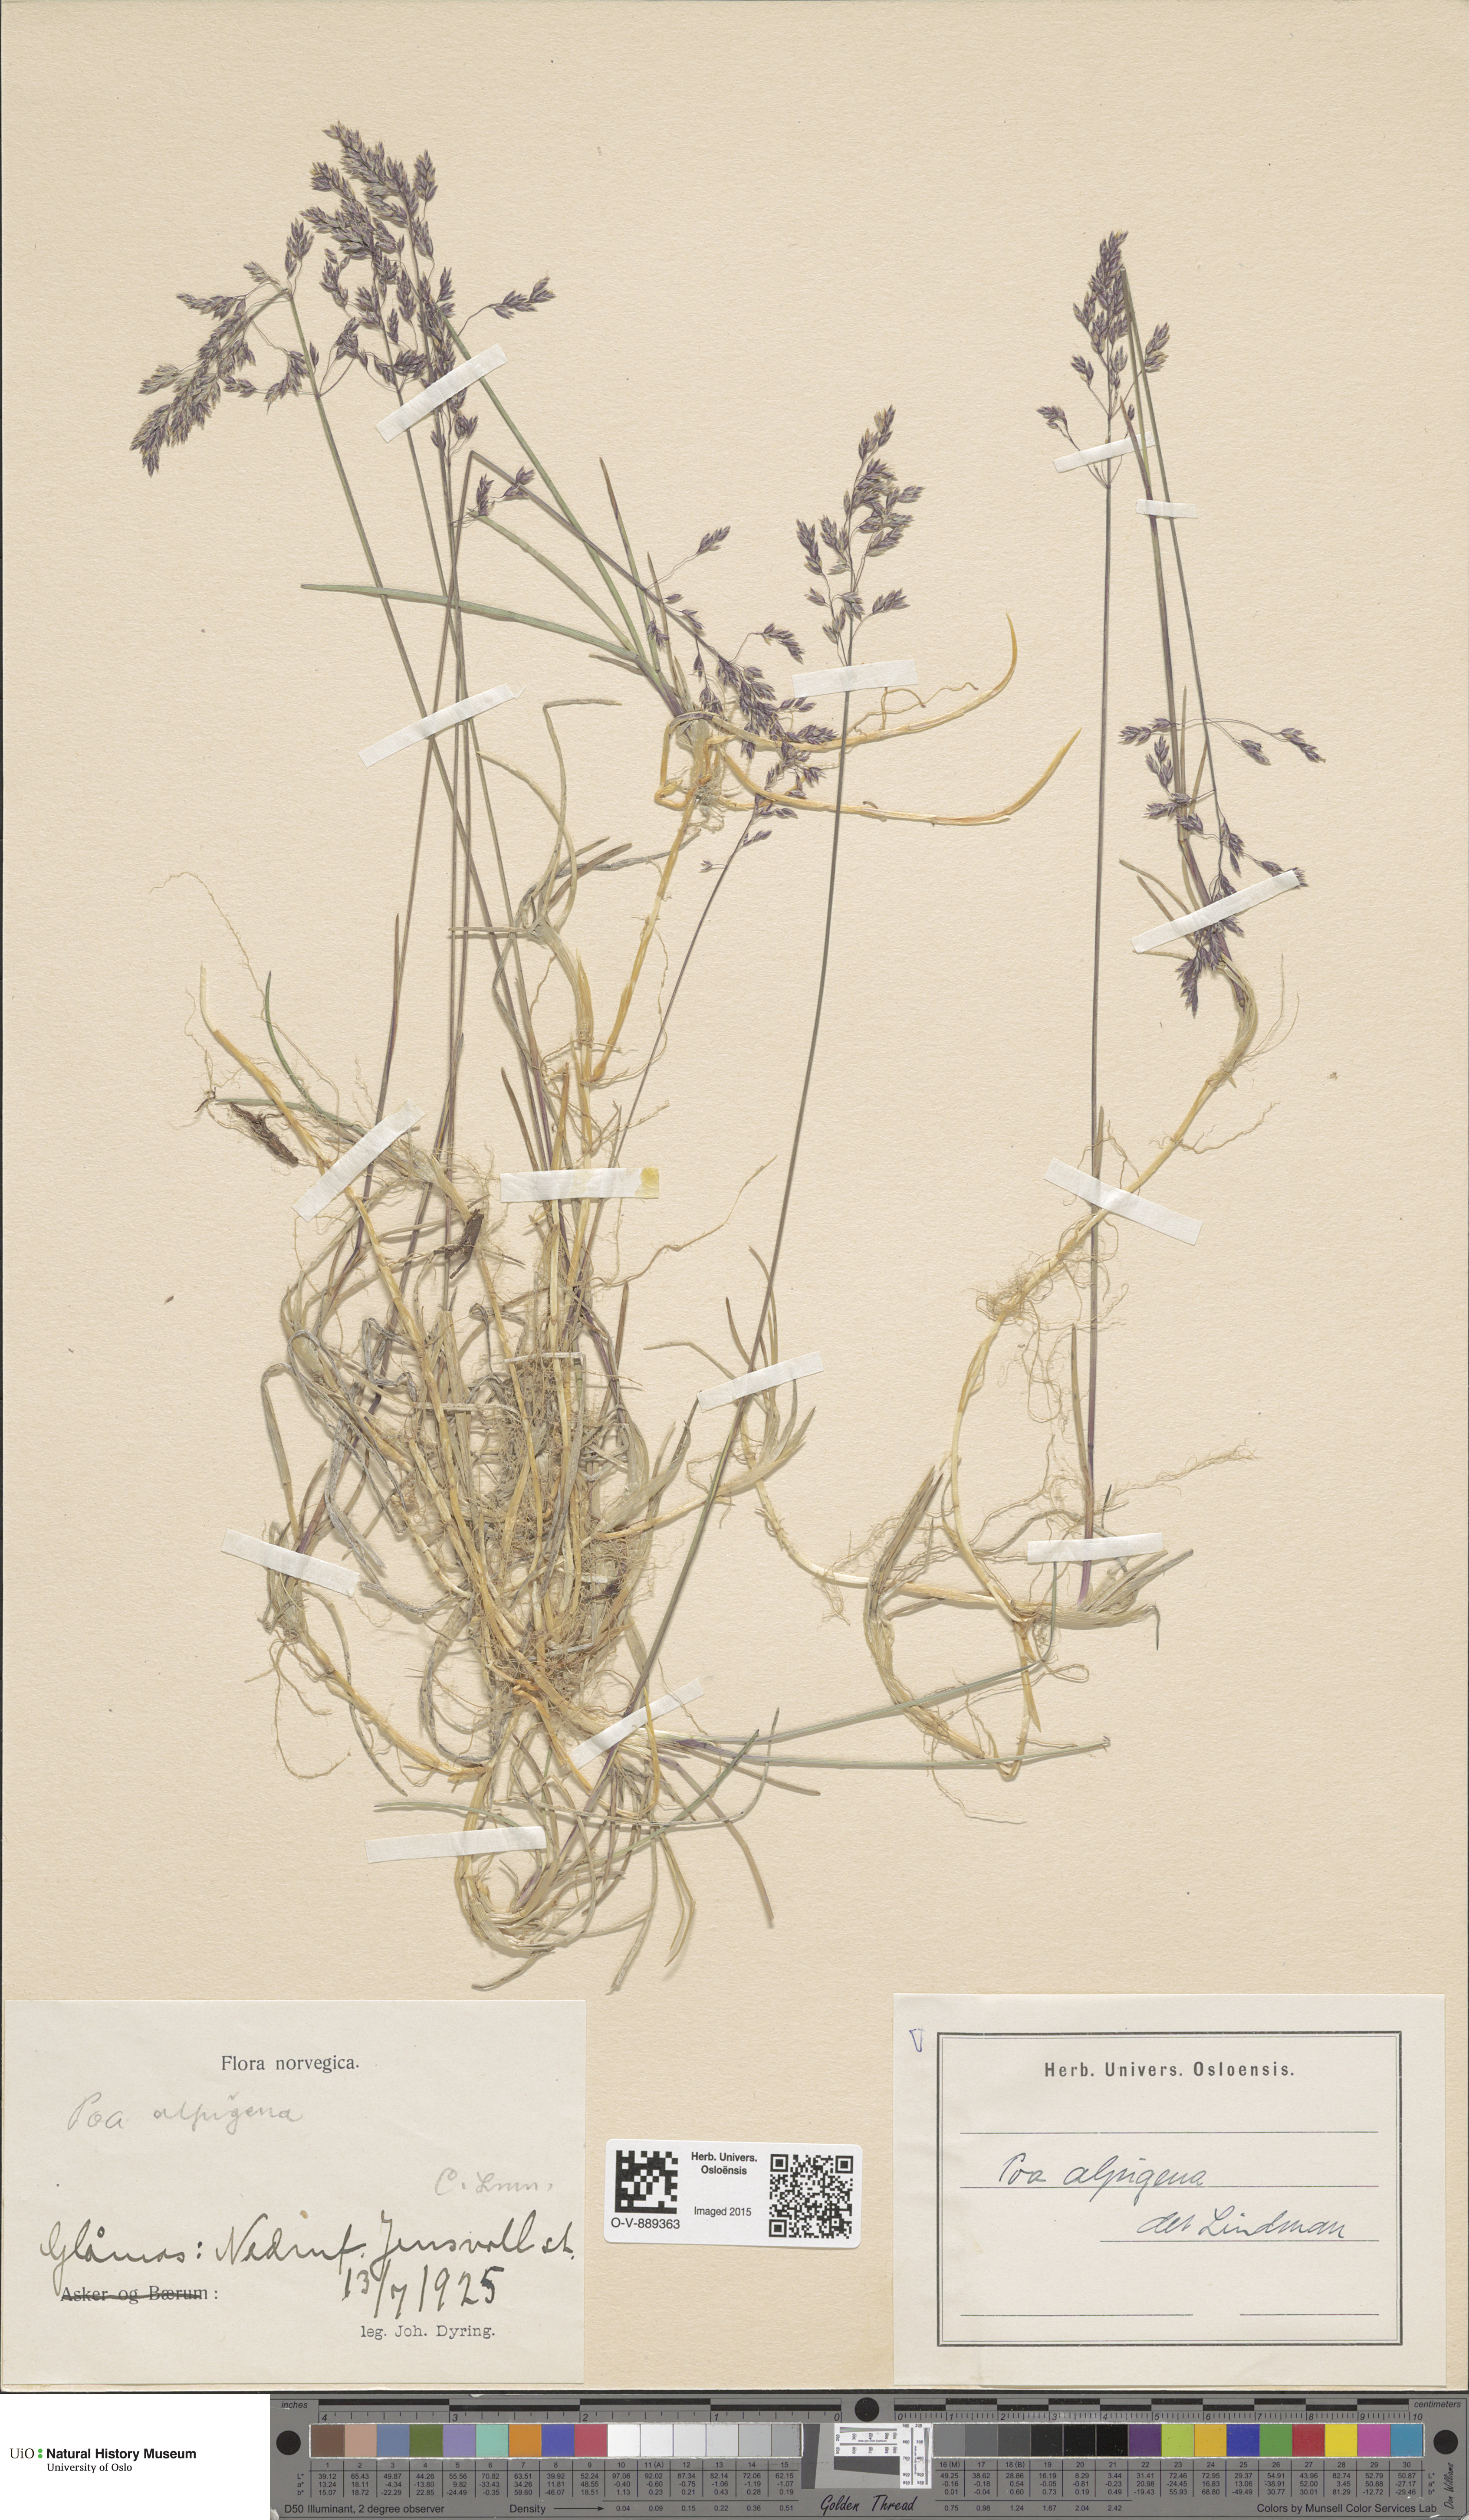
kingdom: Plantae
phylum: Tracheophyta
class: Liliopsida
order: Poales
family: Poaceae
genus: Poa
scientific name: Poa alpigena
